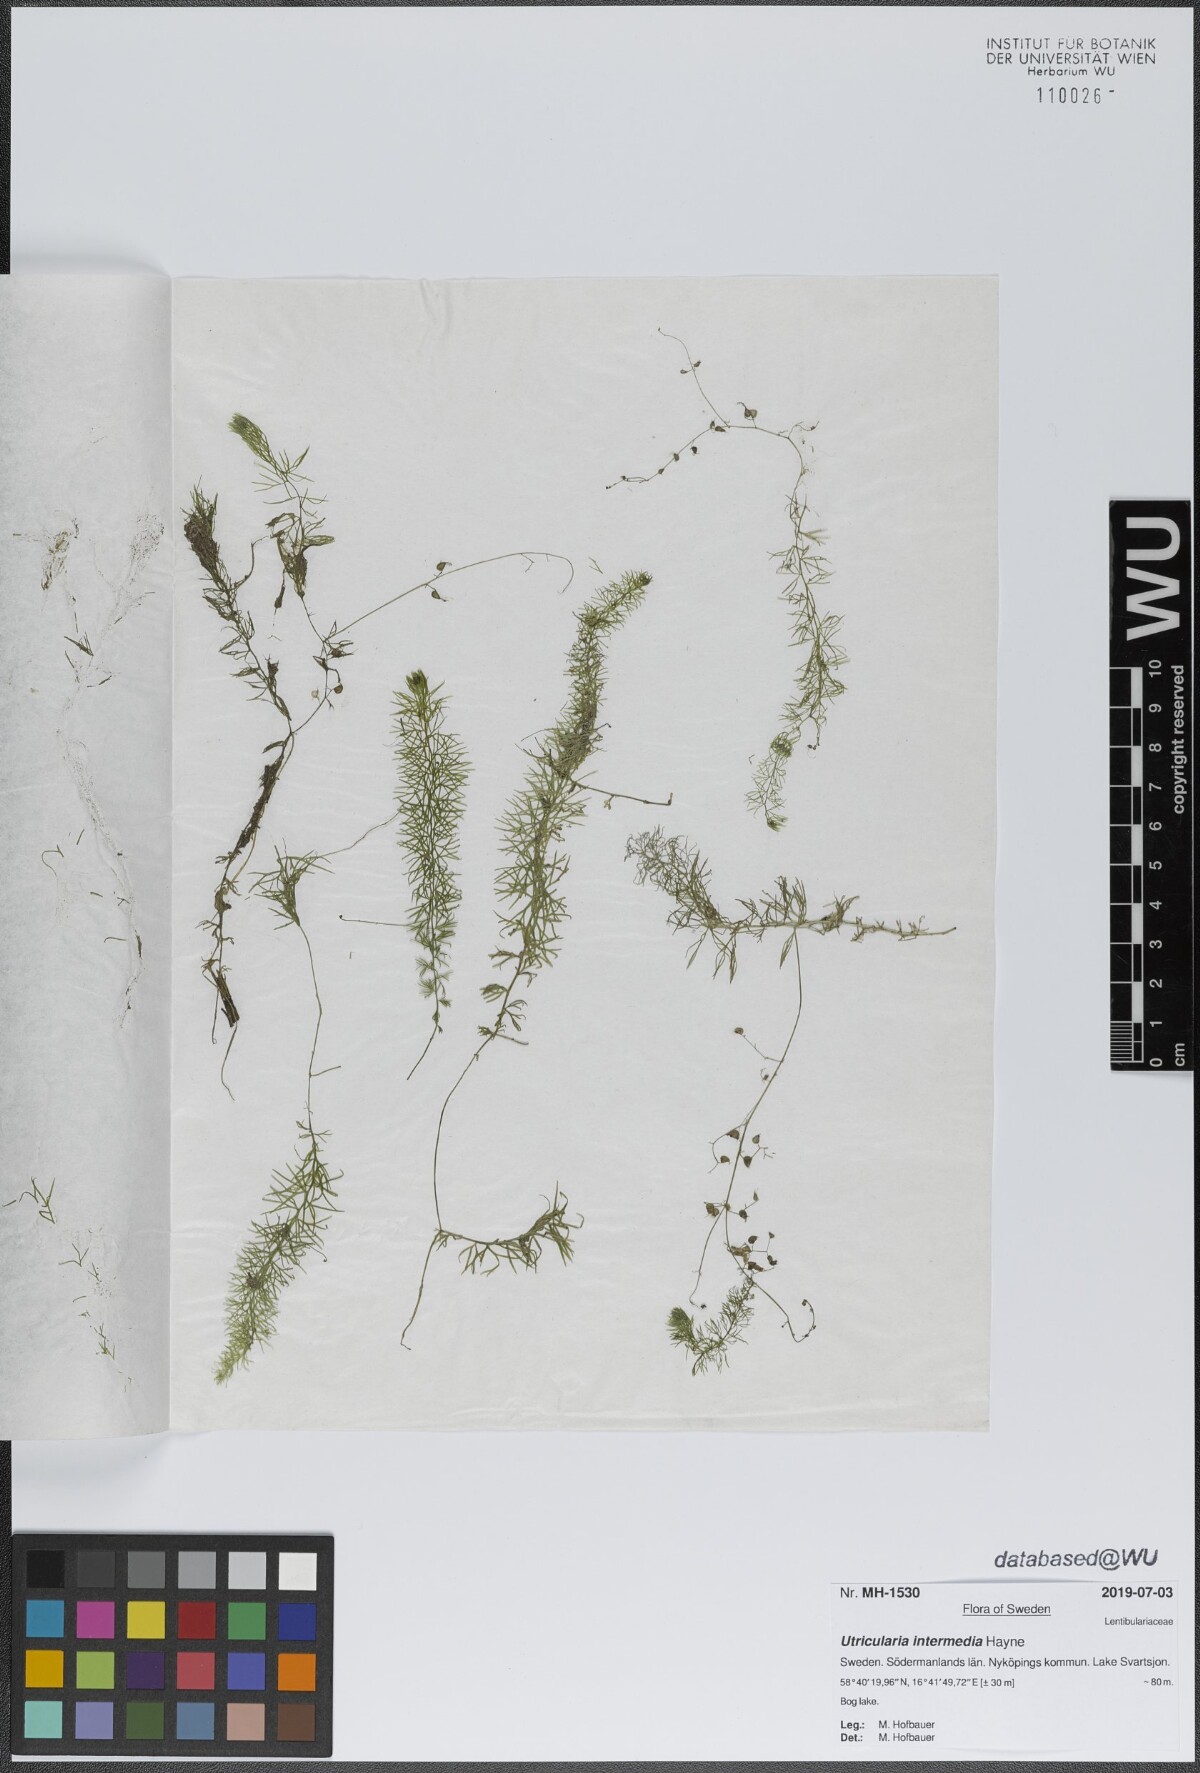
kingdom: Plantae
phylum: Tracheophyta
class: Magnoliopsida
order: Lamiales
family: Lentibulariaceae
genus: Utricularia
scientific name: Utricularia intermedia
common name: Intermediate bladderwort
